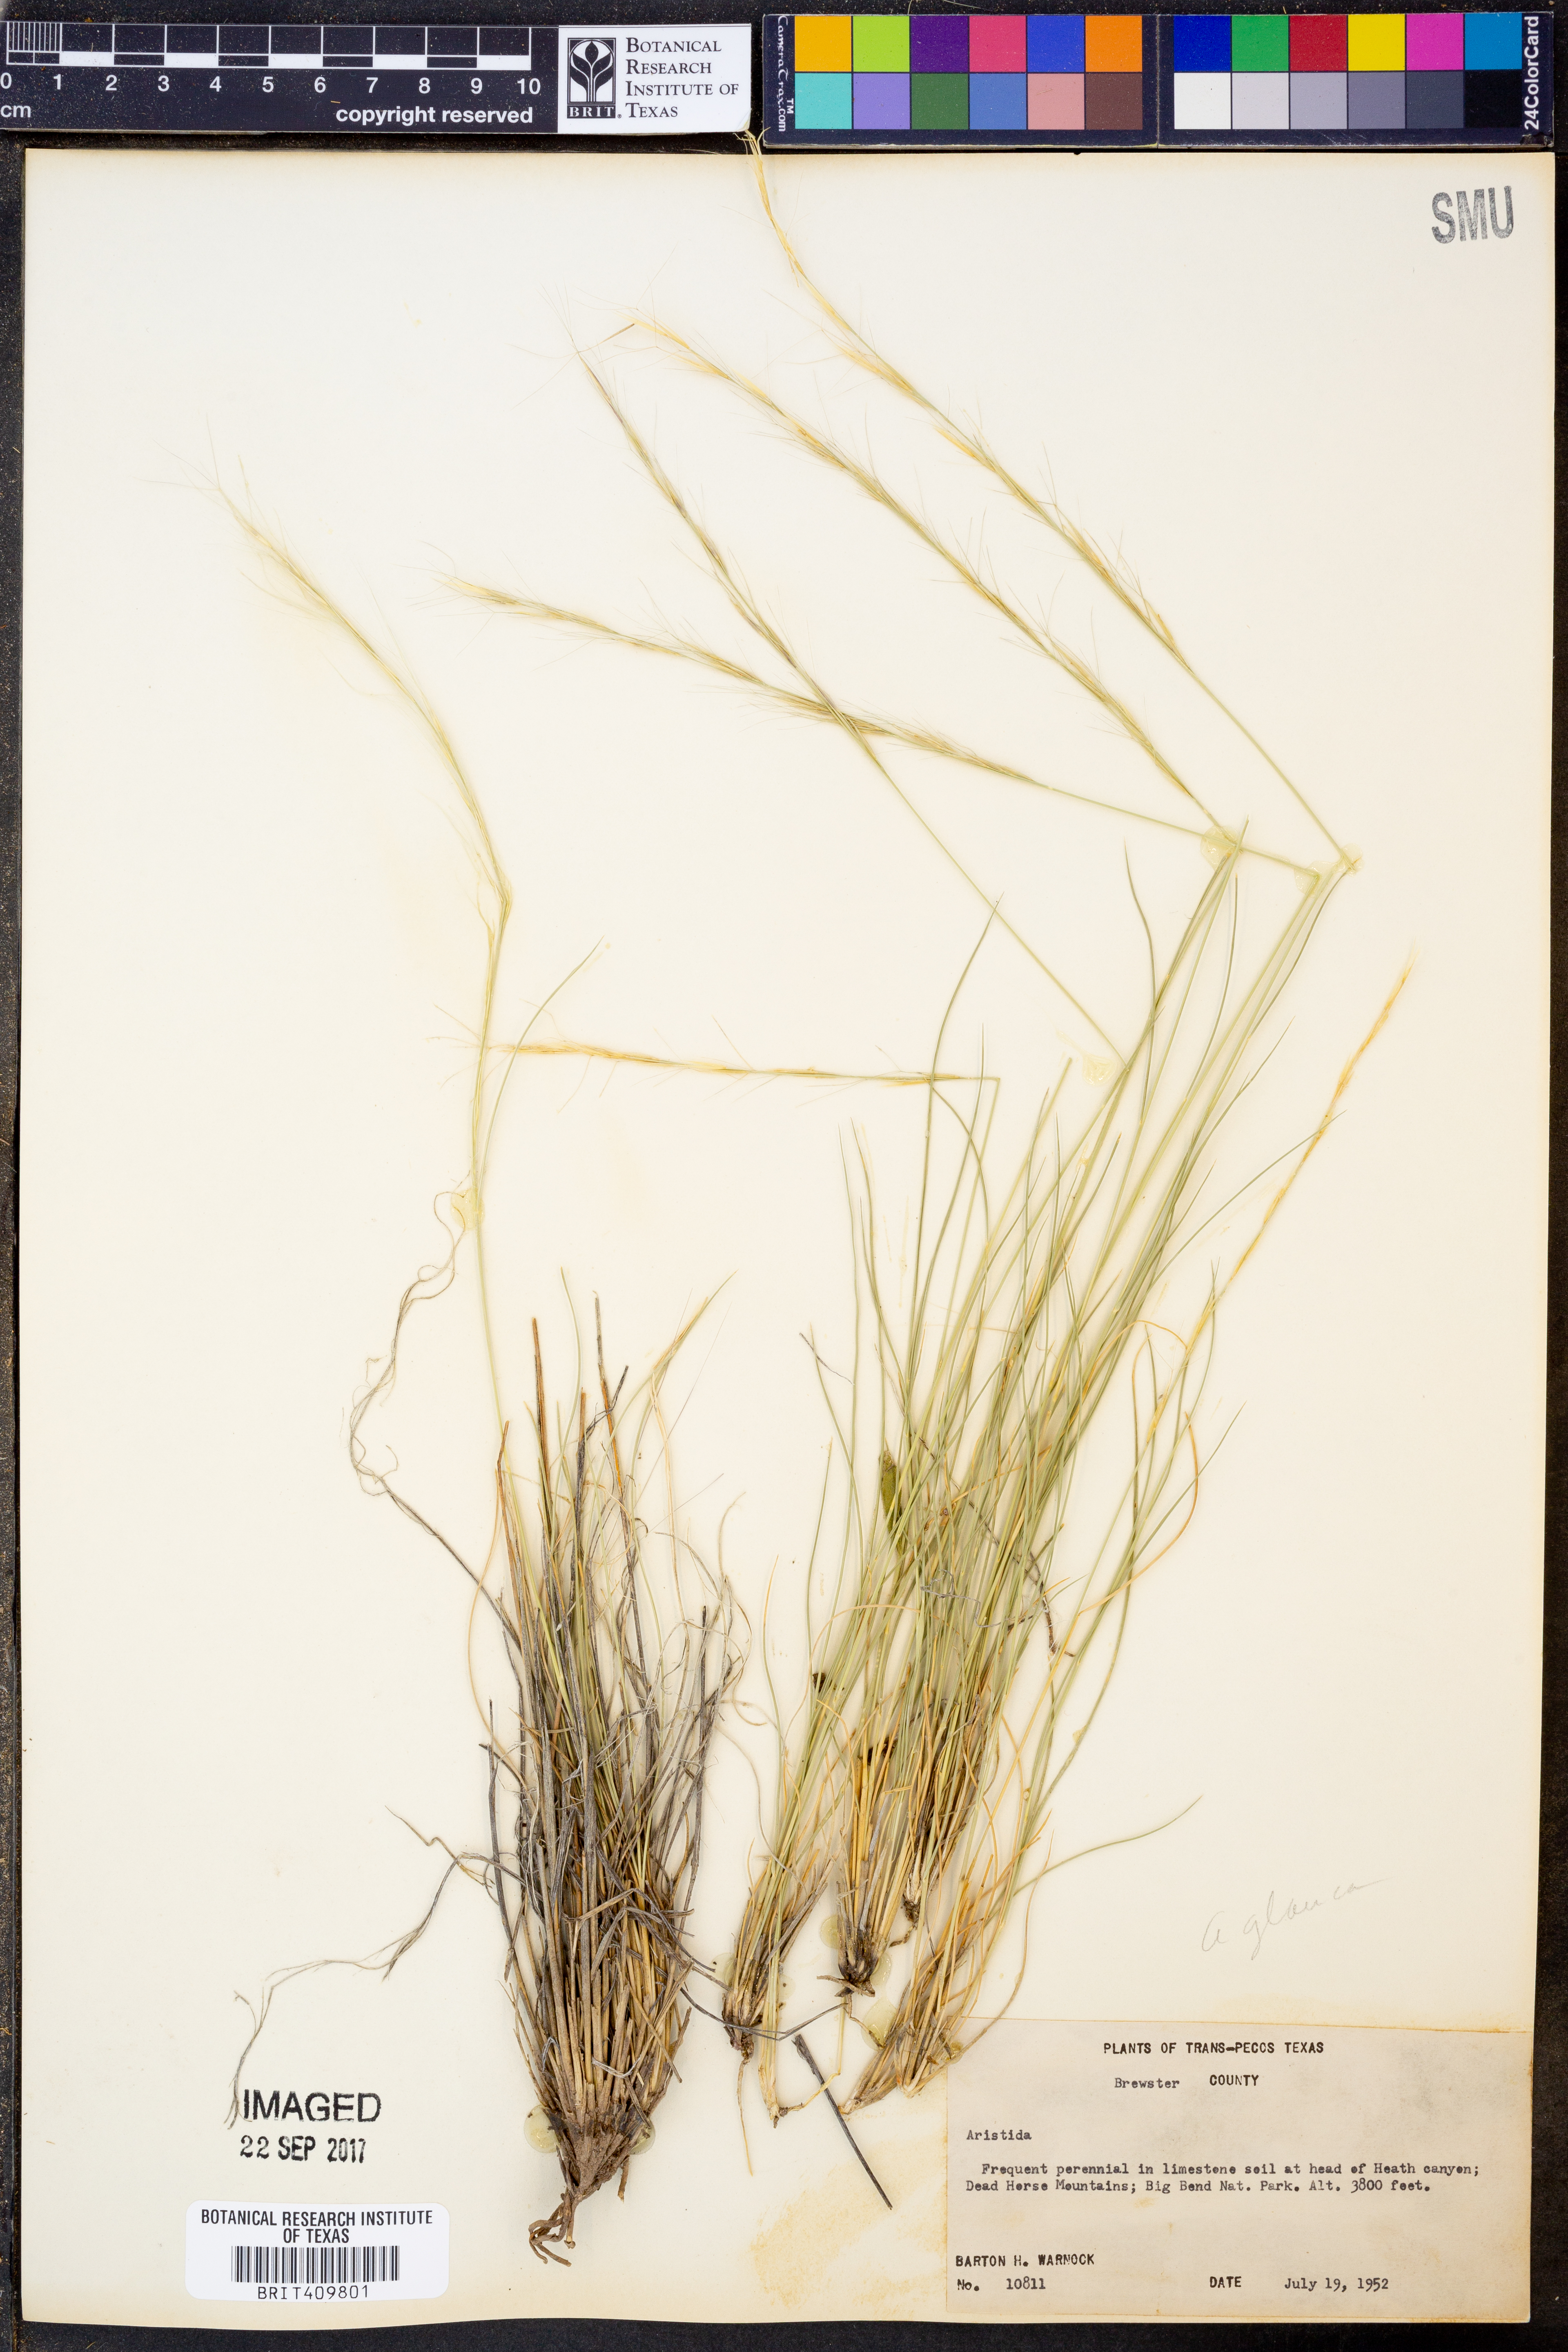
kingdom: Plantae
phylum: Tracheophyta
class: Liliopsida
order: Poales
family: Poaceae
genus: Aristida
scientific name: Aristida
